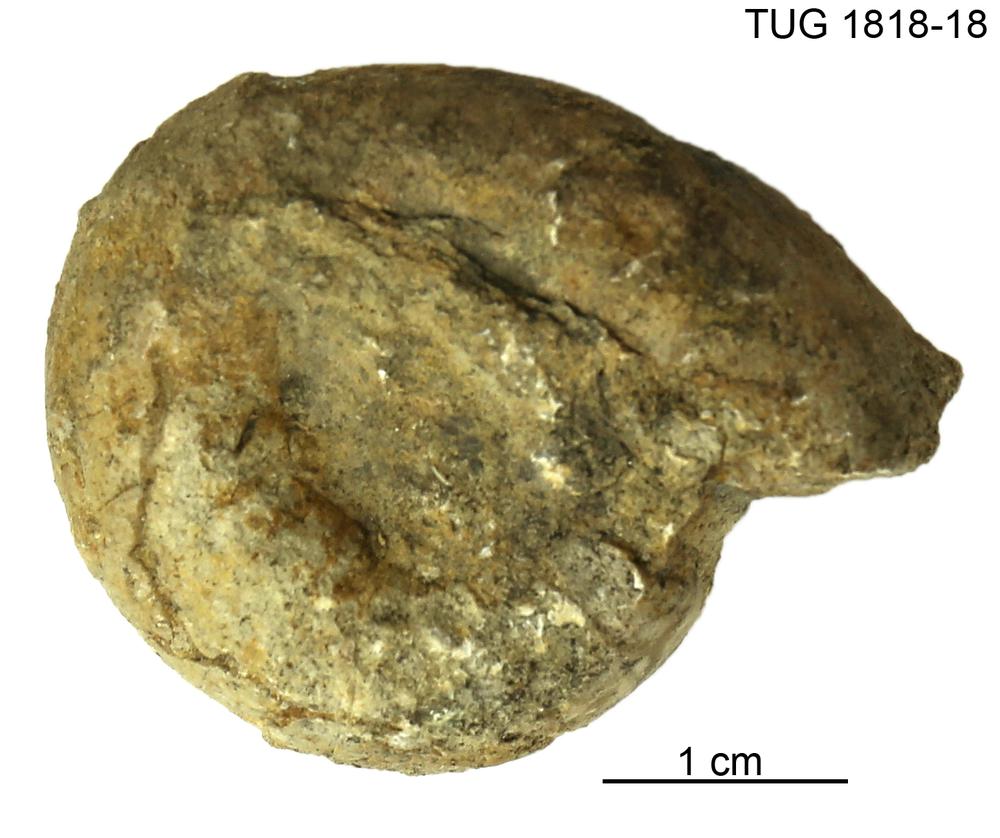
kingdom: Animalia
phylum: Mollusca
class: Cephalopoda
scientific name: Cephalopoda
